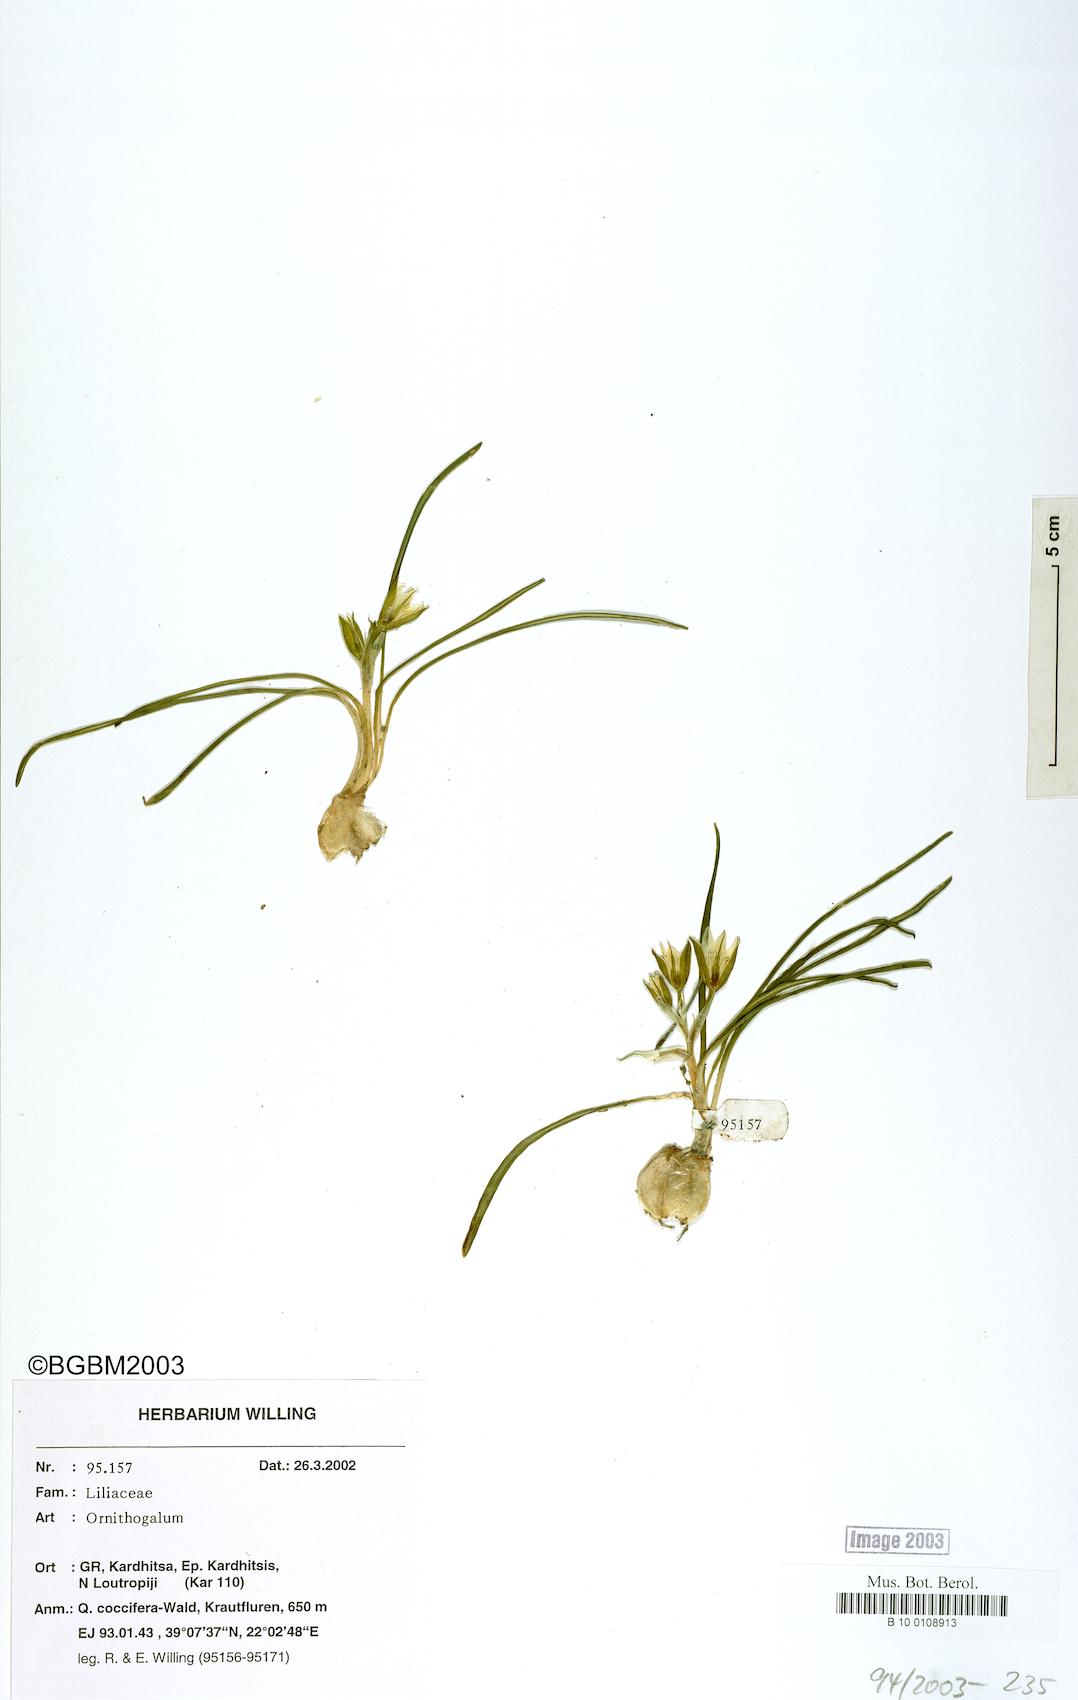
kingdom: Plantae
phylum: Tracheophyta
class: Liliopsida
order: Asparagales
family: Asparagaceae
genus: Ornithogalum
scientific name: Ornithogalum
